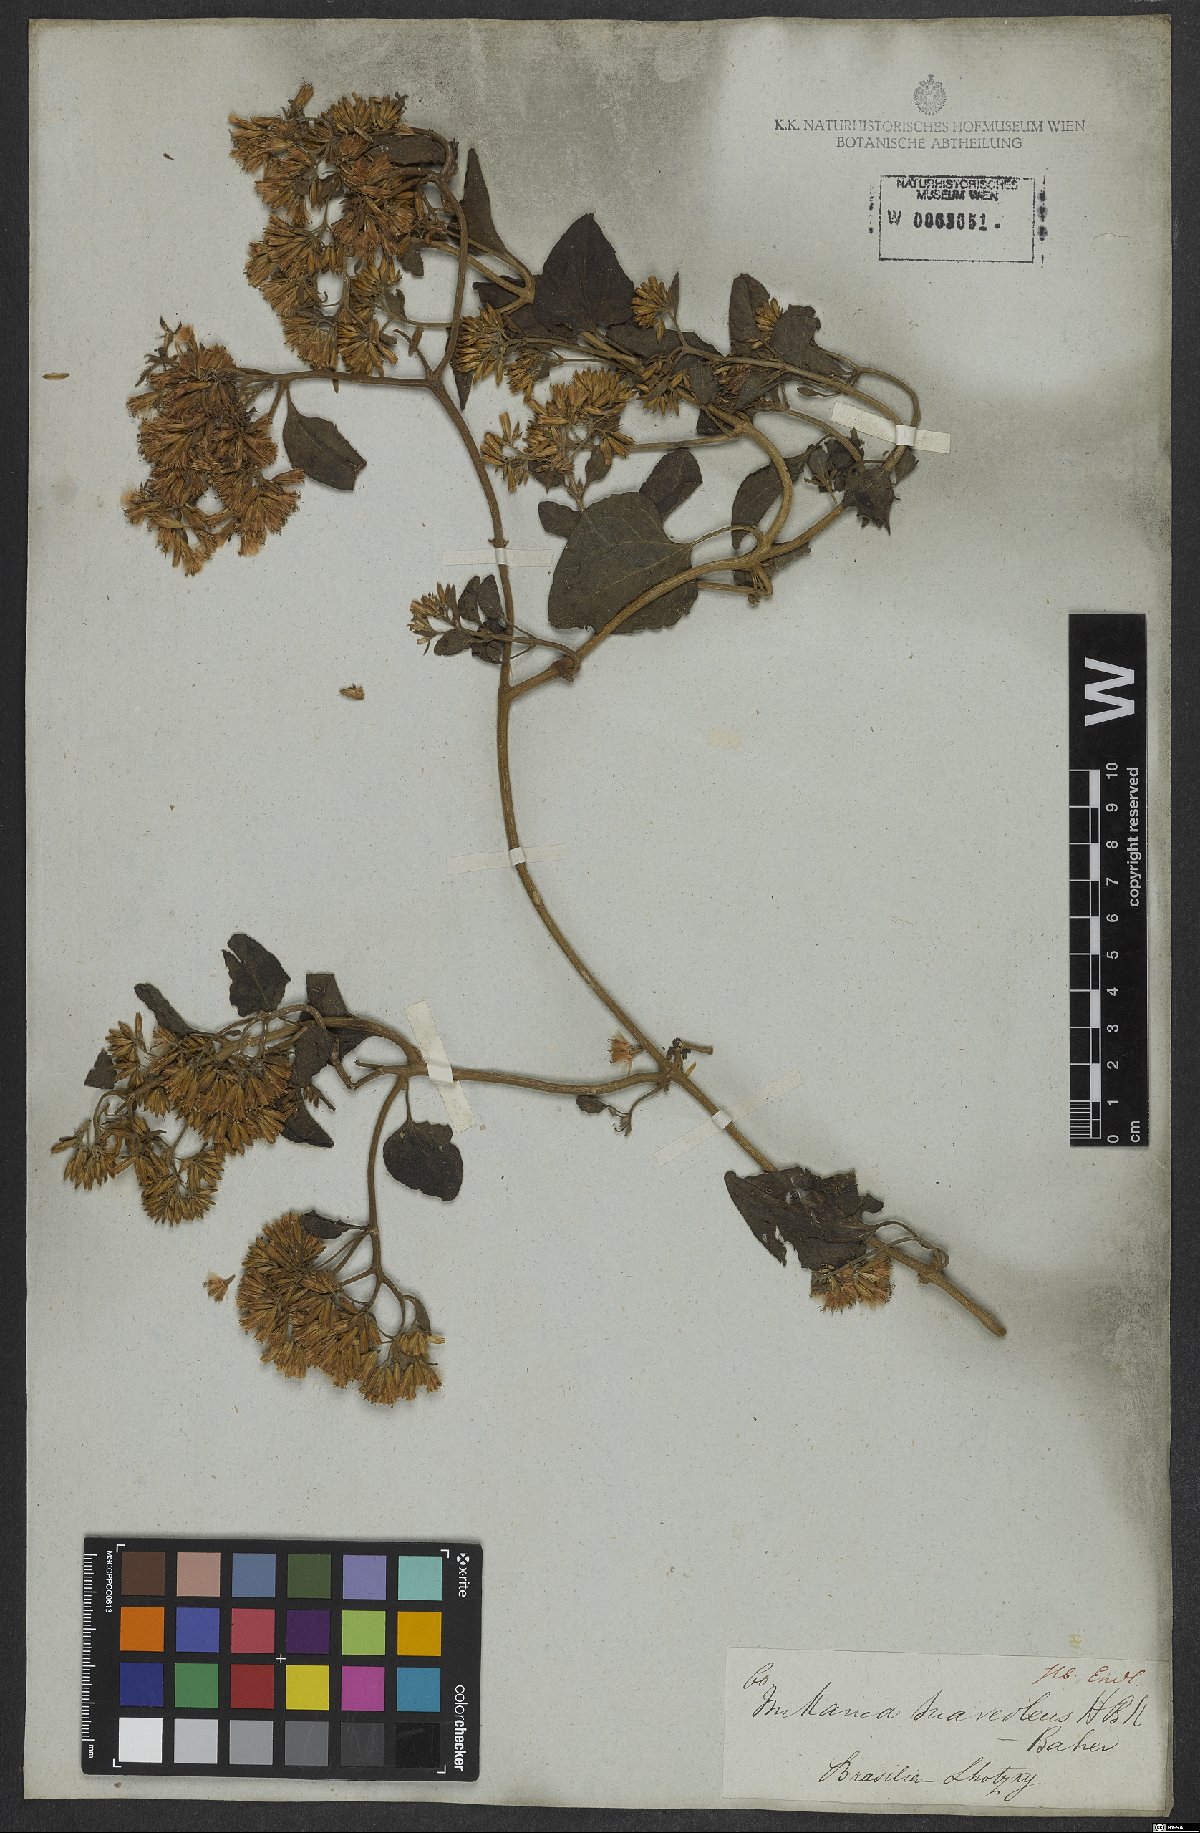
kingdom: Plantae
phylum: Tracheophyta
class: Magnoliopsida
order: Asterales
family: Asteraceae
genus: Mikania
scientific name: Mikania cordifolia
